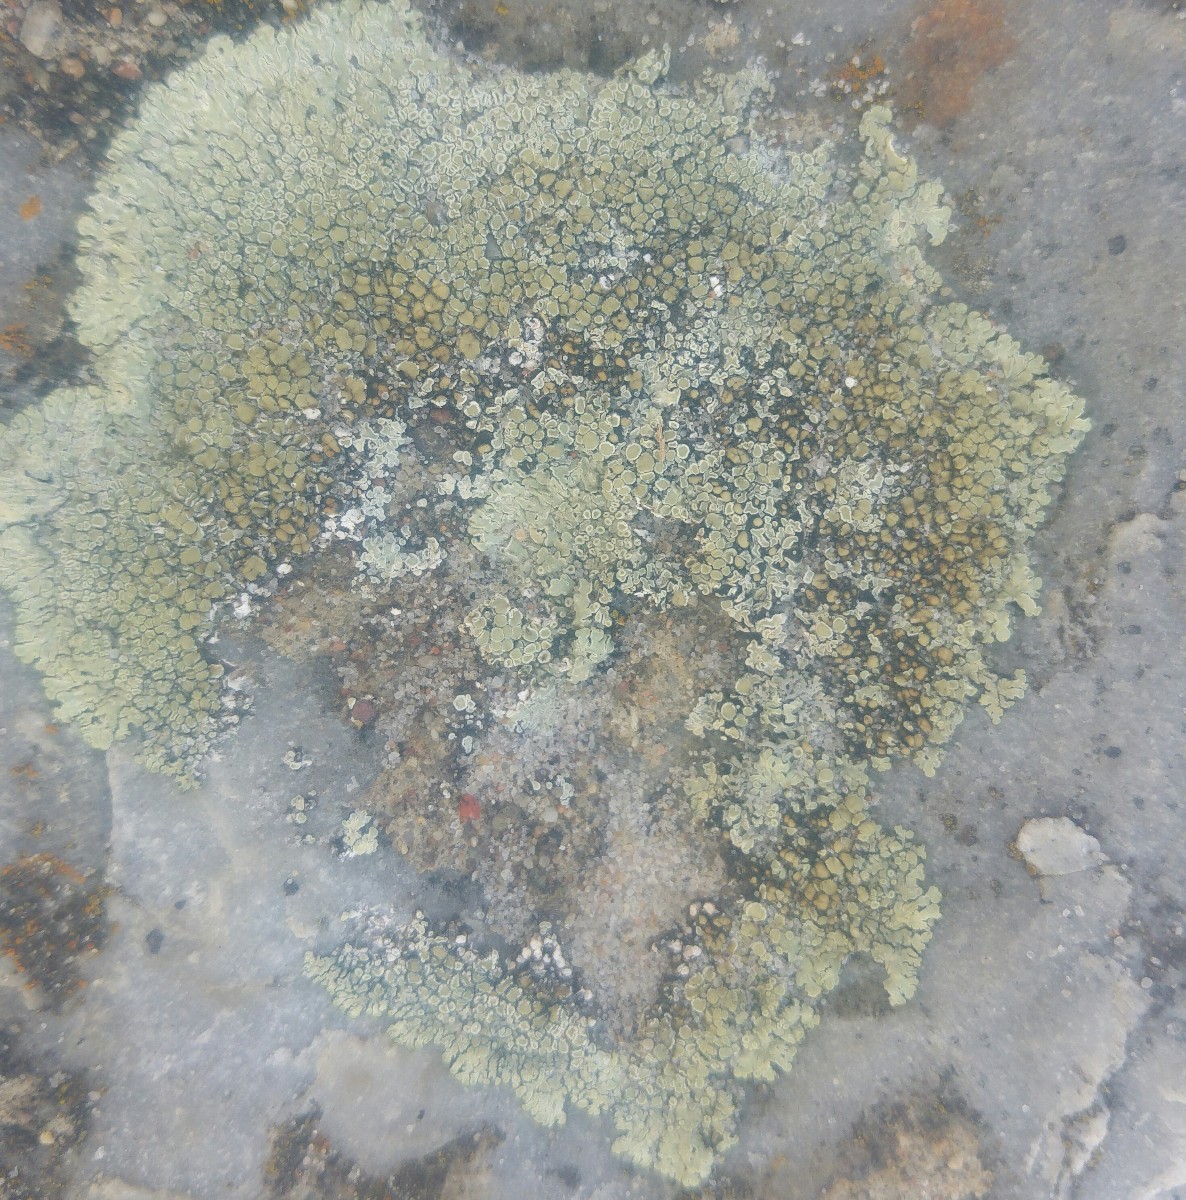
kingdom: Fungi
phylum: Ascomycota
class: Lecanoromycetes
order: Lecanorales
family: Lecanoraceae
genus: Protoparmeliopsis
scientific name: Protoparmeliopsis muralis
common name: randfliget kantskivelav
